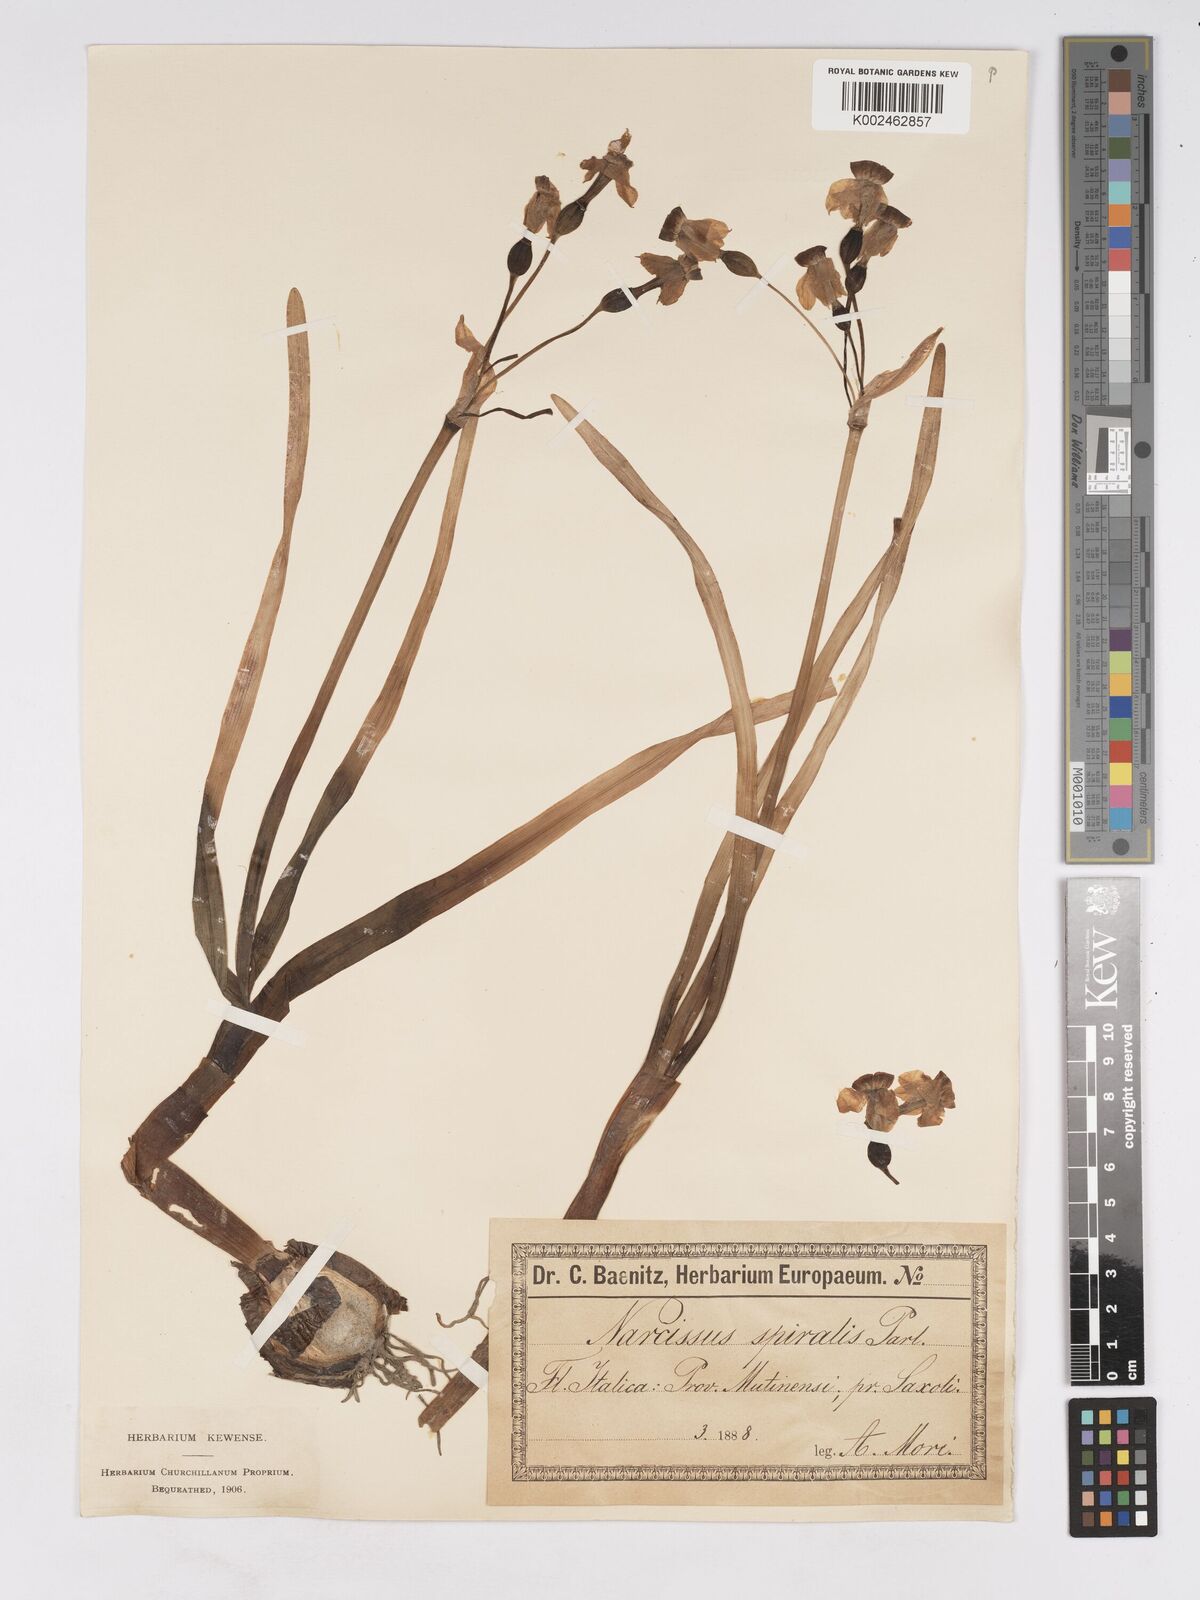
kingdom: Plantae
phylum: Tracheophyta
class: Liliopsida
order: Asparagales
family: Amaryllidaceae
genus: Narcissus
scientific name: Narcissus tazetta
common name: Bunch-flowered daffodil
